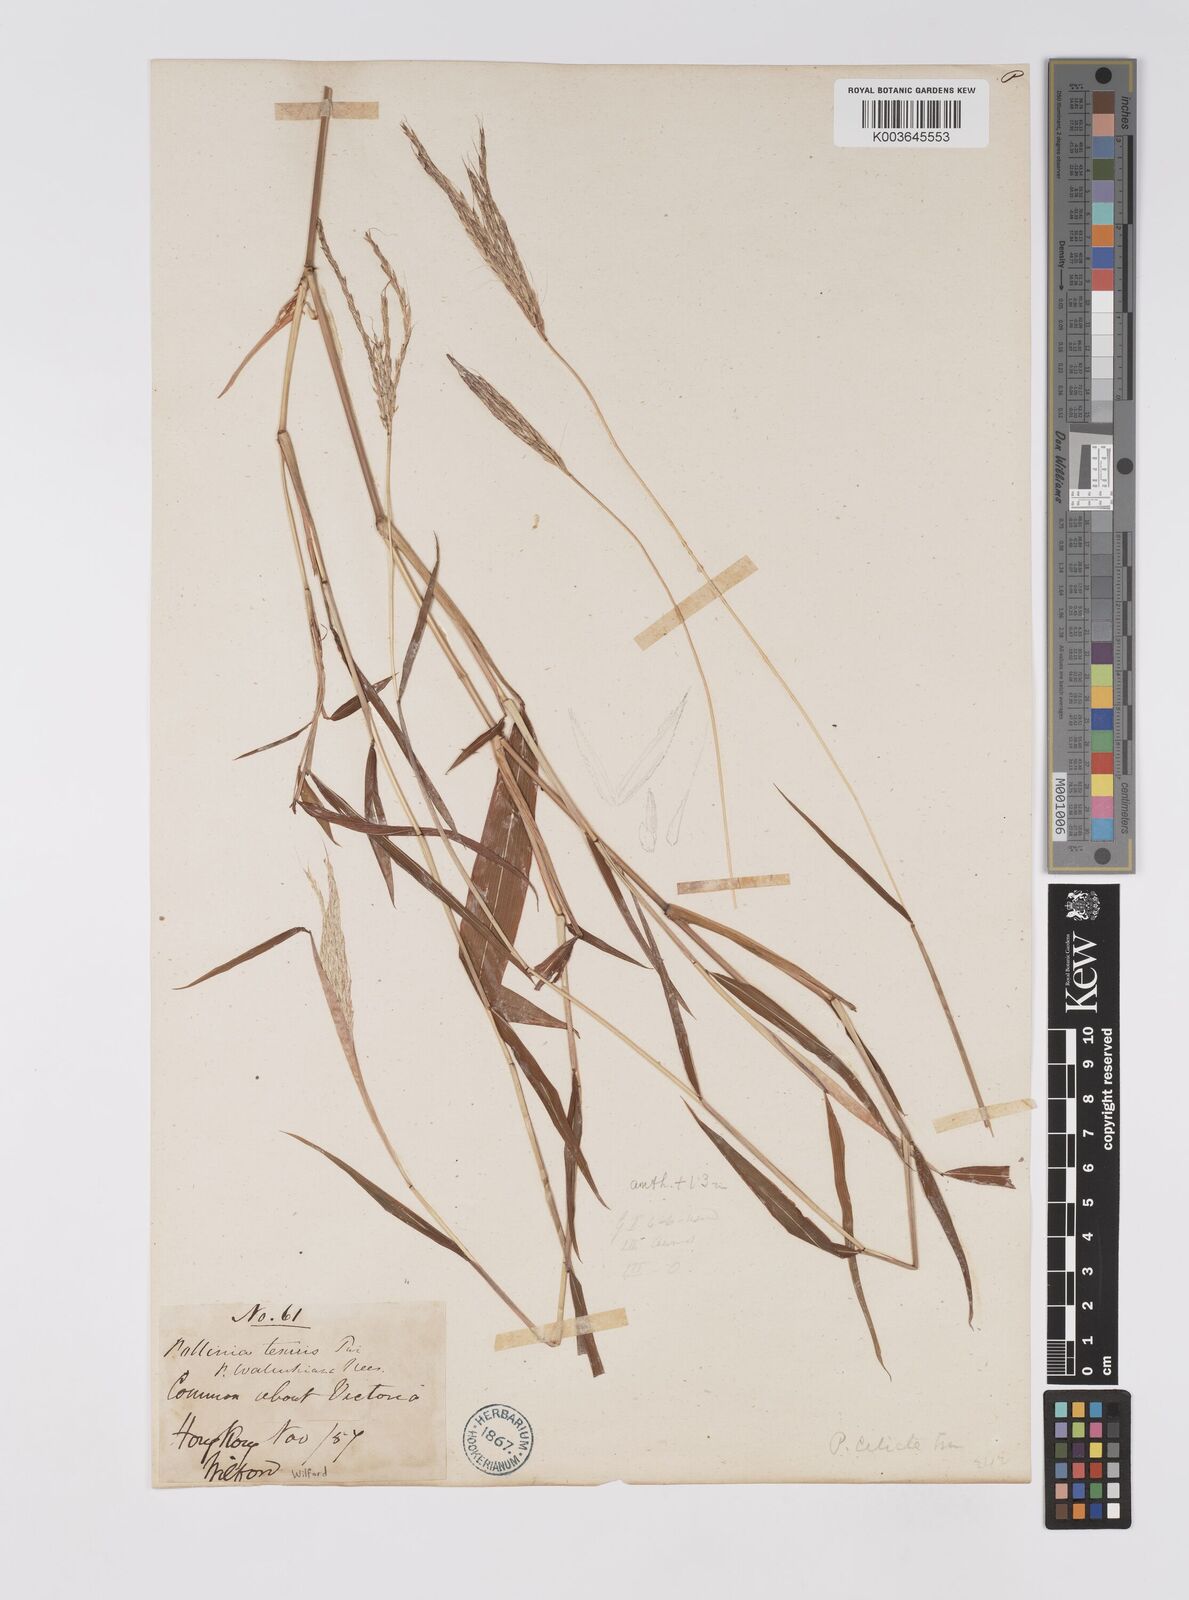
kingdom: Plantae
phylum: Tracheophyta
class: Liliopsida
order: Poales
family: Poaceae
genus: Microstegium
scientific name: Microstegium fasciculatum
